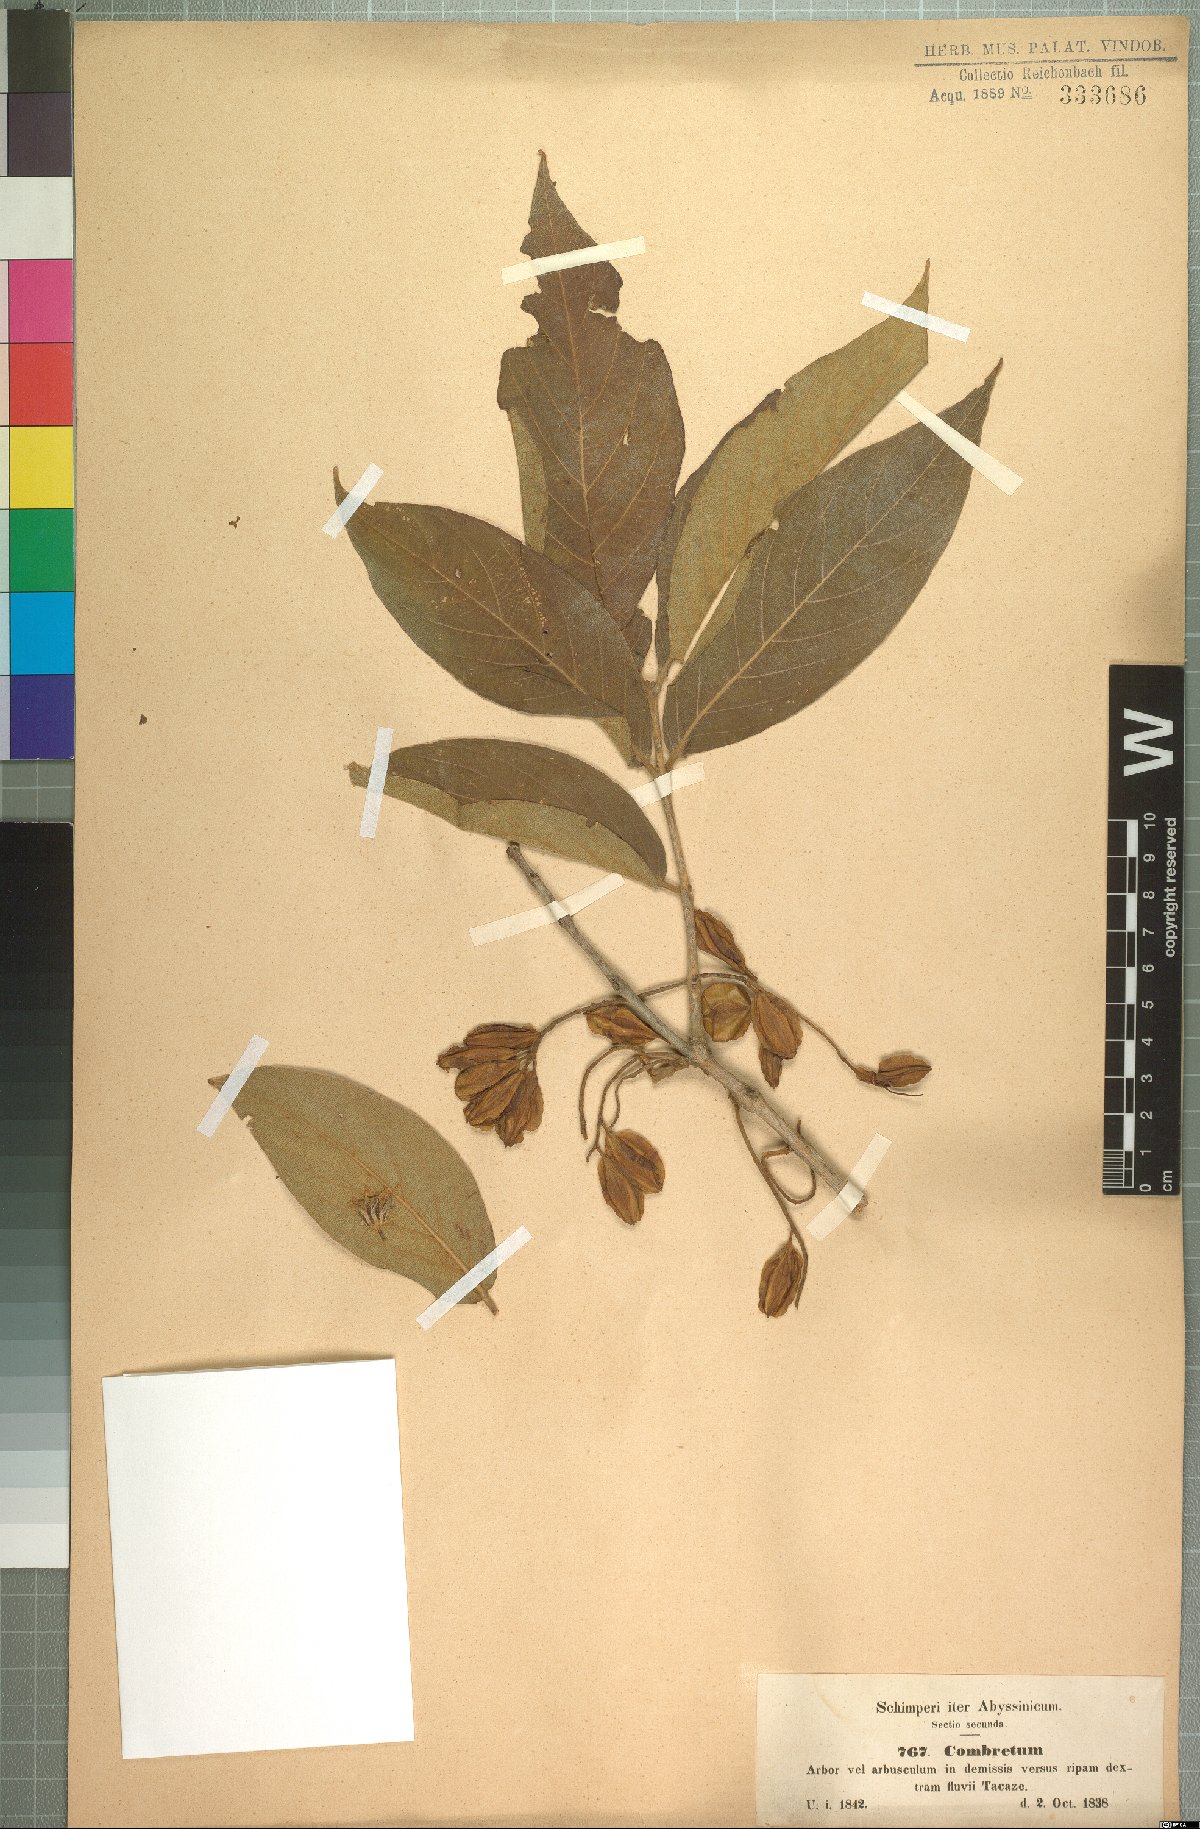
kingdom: Plantae
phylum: Tracheophyta
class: Magnoliopsida
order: Myrtales
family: Combretaceae
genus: Combretum
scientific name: Combretum molle
